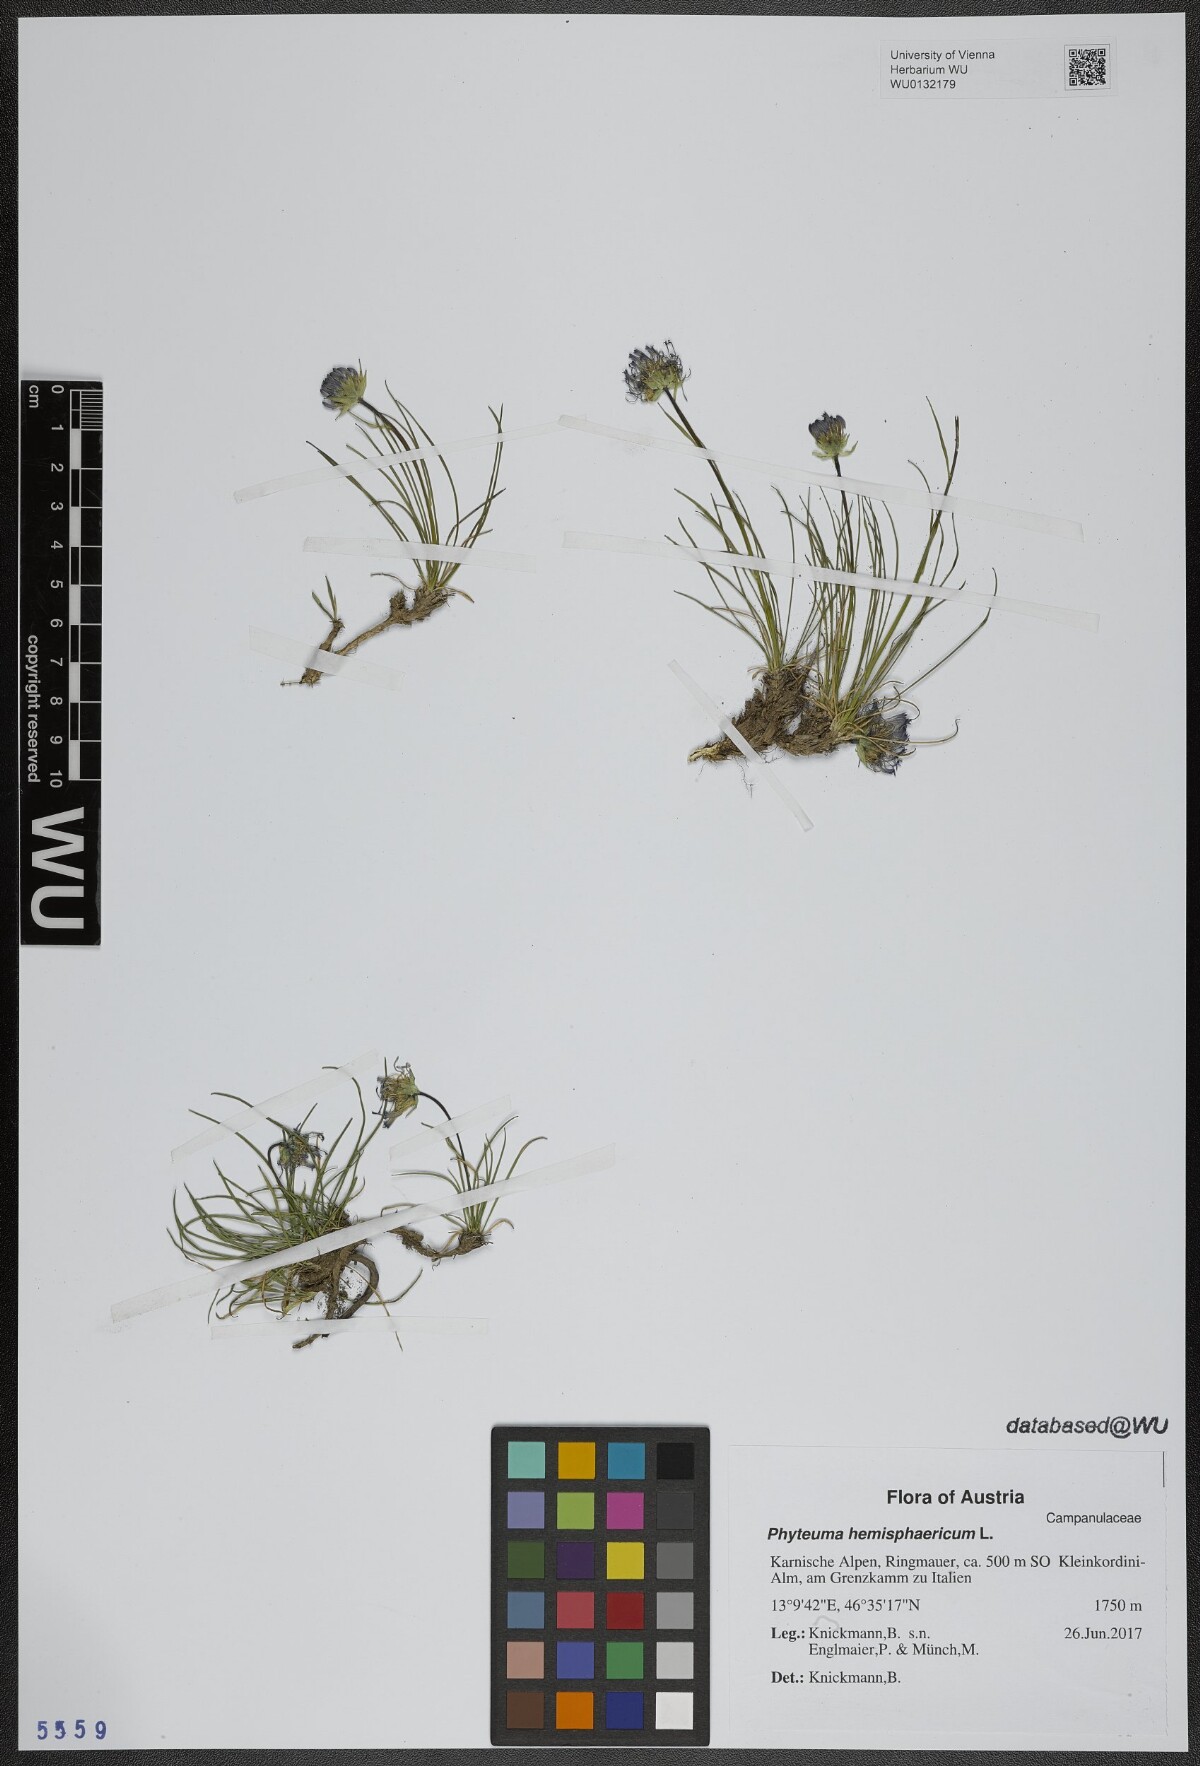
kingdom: Plantae
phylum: Tracheophyta
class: Magnoliopsida
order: Asterales
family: Campanulaceae
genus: Phyteuma
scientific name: Phyteuma hemisphaericum
